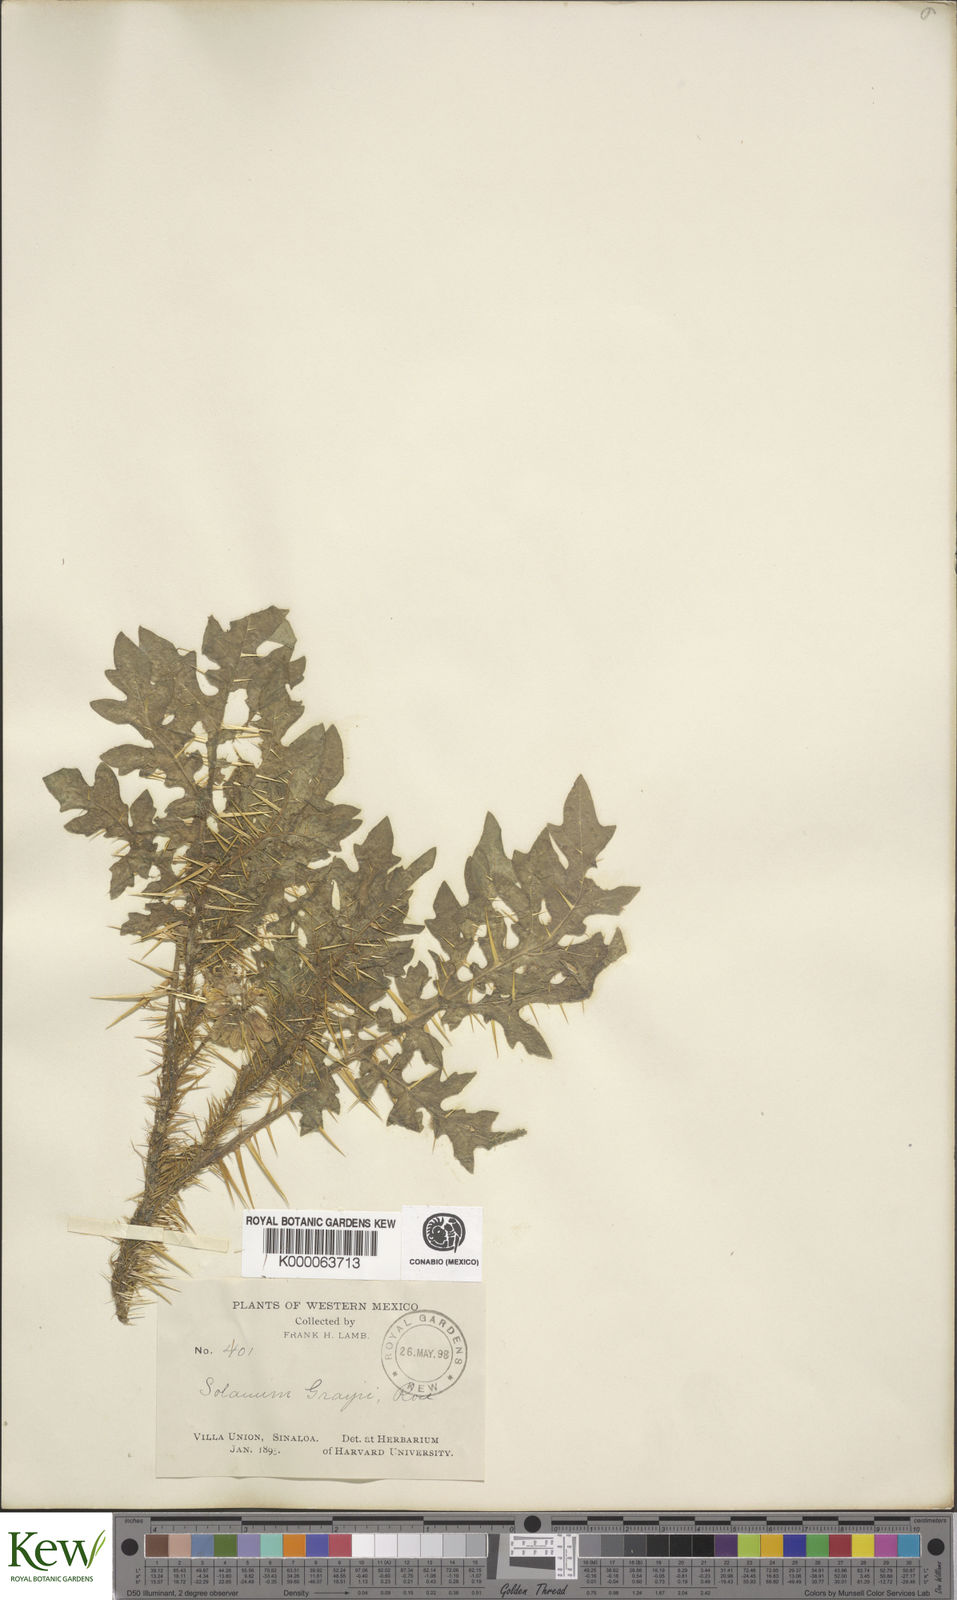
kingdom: Plantae
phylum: Tracheophyta
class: Magnoliopsida
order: Solanales
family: Solanaceae
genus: Solanum
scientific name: Solanum grayi
